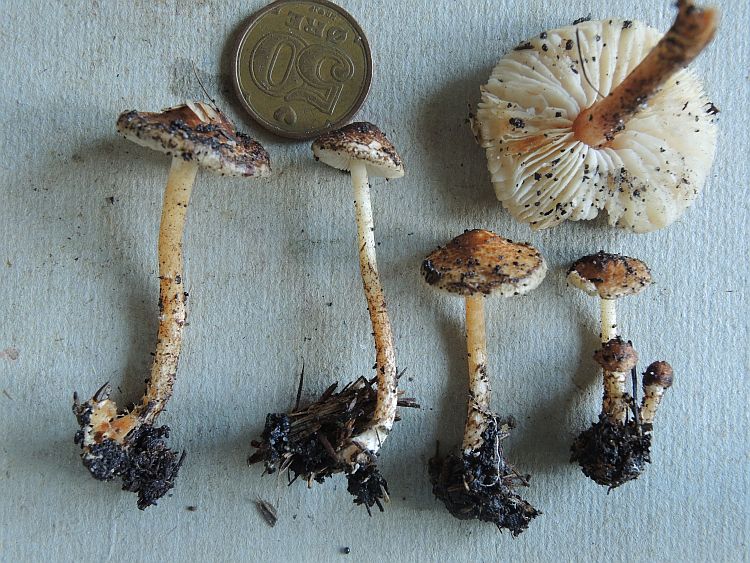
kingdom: Fungi
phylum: Basidiomycota
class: Agaricomycetes
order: Agaricales
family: Agaricaceae
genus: Lepiota
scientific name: Lepiota castanea
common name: kastaniebrun parasolhat
